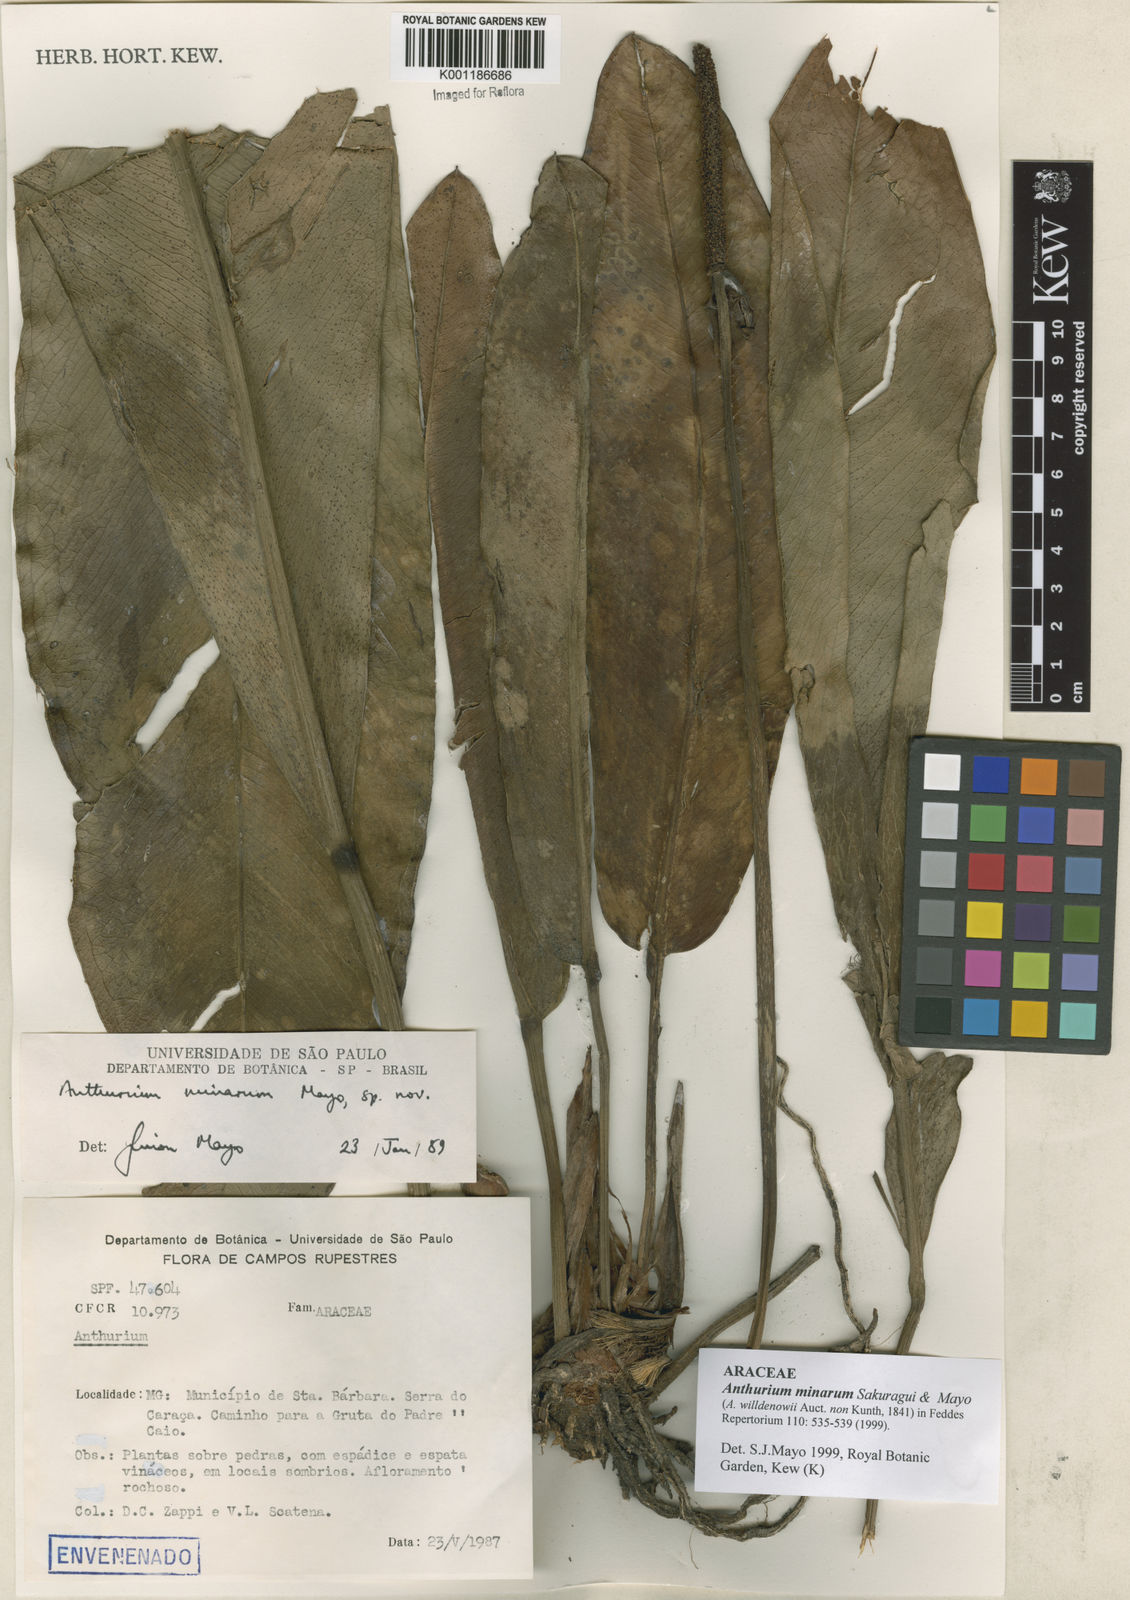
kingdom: Plantae
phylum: Tracheophyta
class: Liliopsida
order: Alismatales
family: Araceae
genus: Anthurium
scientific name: Anthurium minarum
